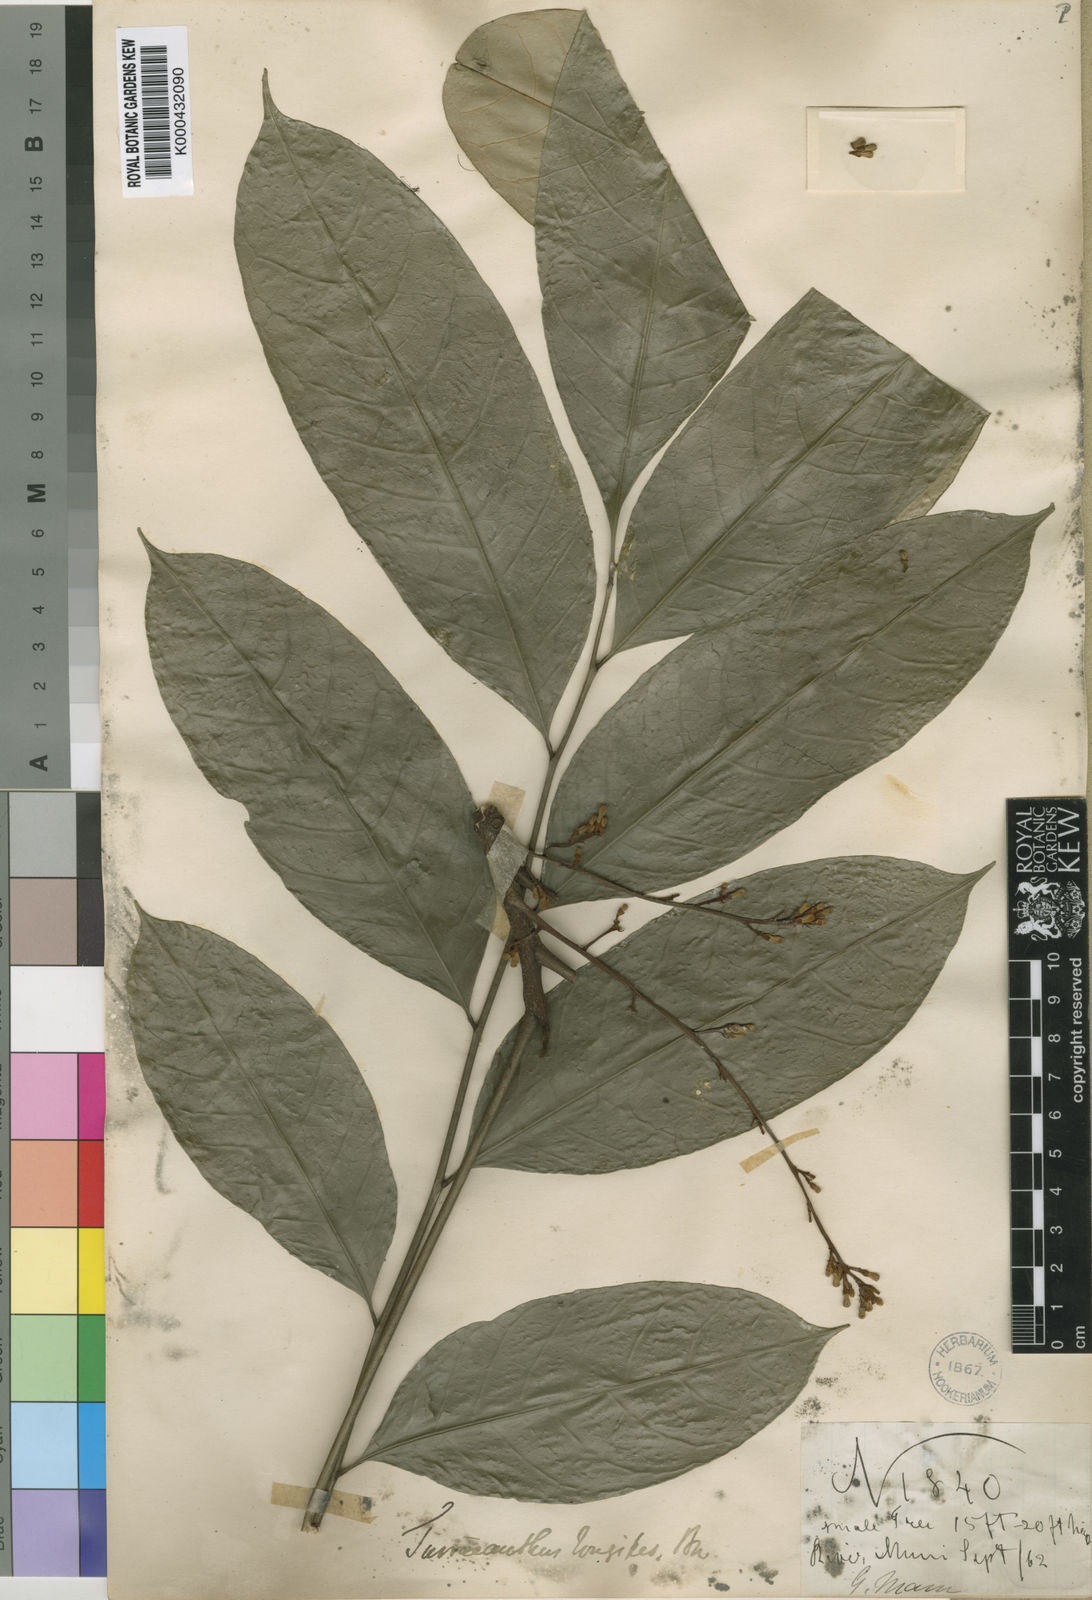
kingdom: Plantae
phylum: Tracheophyta
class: Magnoliopsida
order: Sapindales
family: Meliaceae
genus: Turraeanthus
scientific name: Turraeanthus longipes
